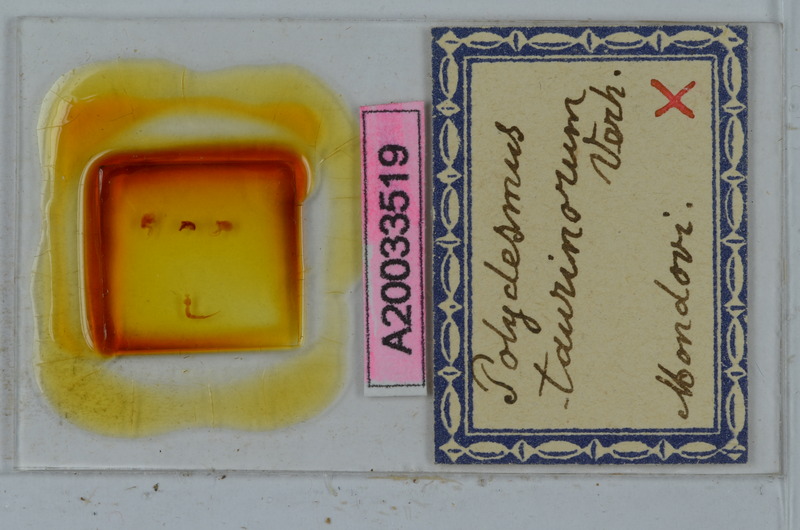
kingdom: Animalia
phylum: Arthropoda
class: Diplopoda
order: Polydesmida
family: Polydesmidae
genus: Propolydesmus
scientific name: Propolydesmus testaceus
